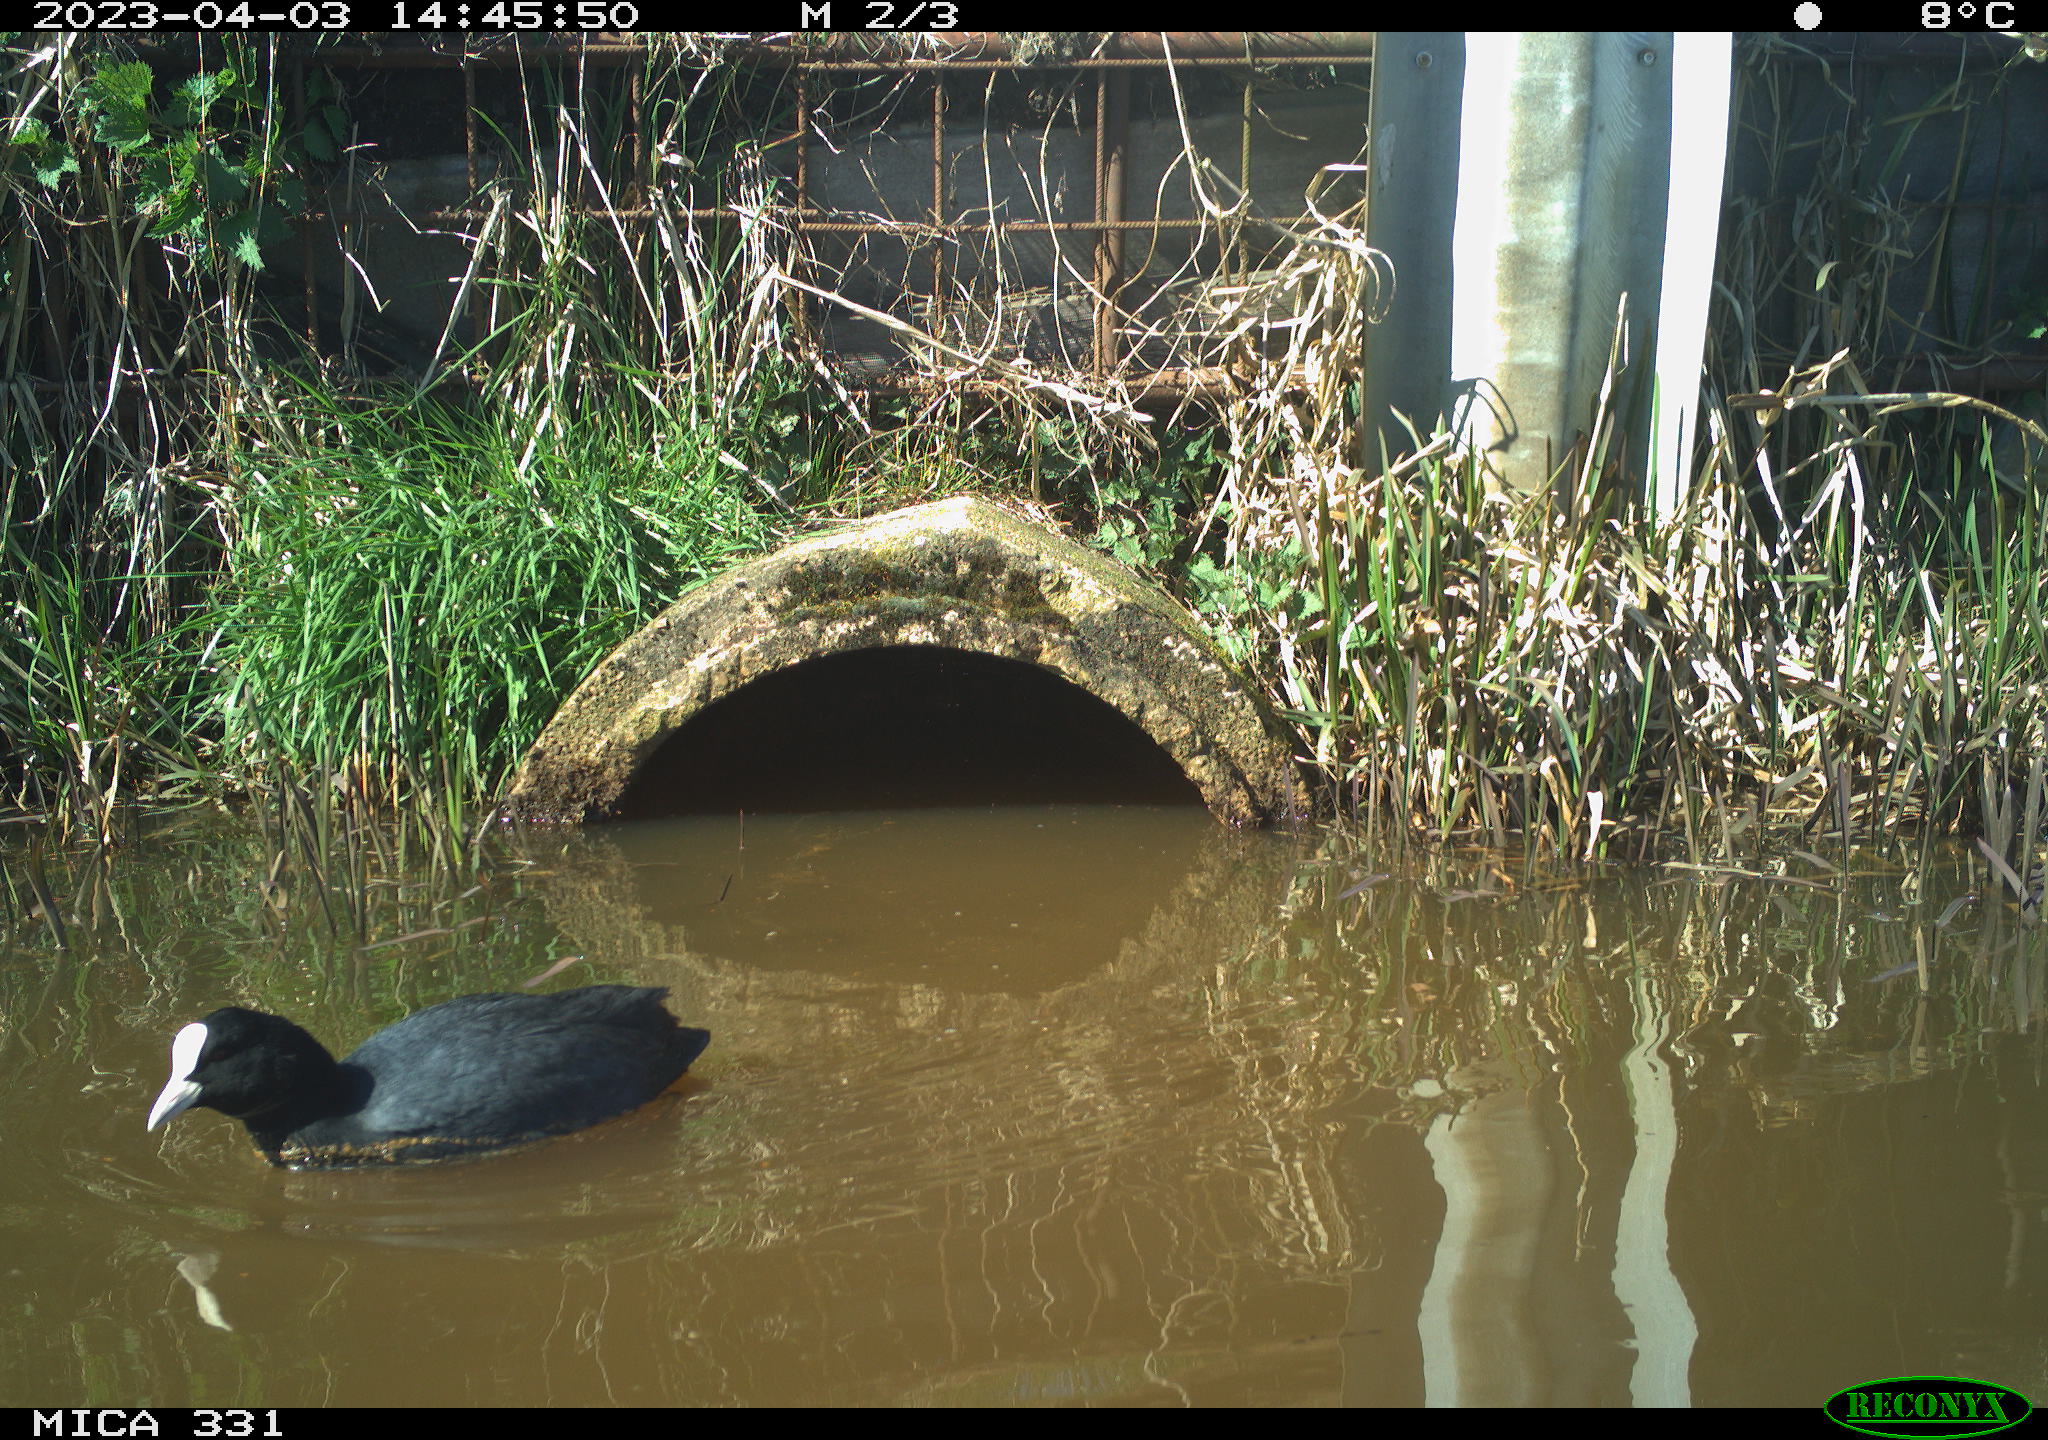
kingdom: Animalia
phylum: Chordata
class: Aves
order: Gruiformes
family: Rallidae
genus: Fulica
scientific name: Fulica atra
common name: Eurasian coot
